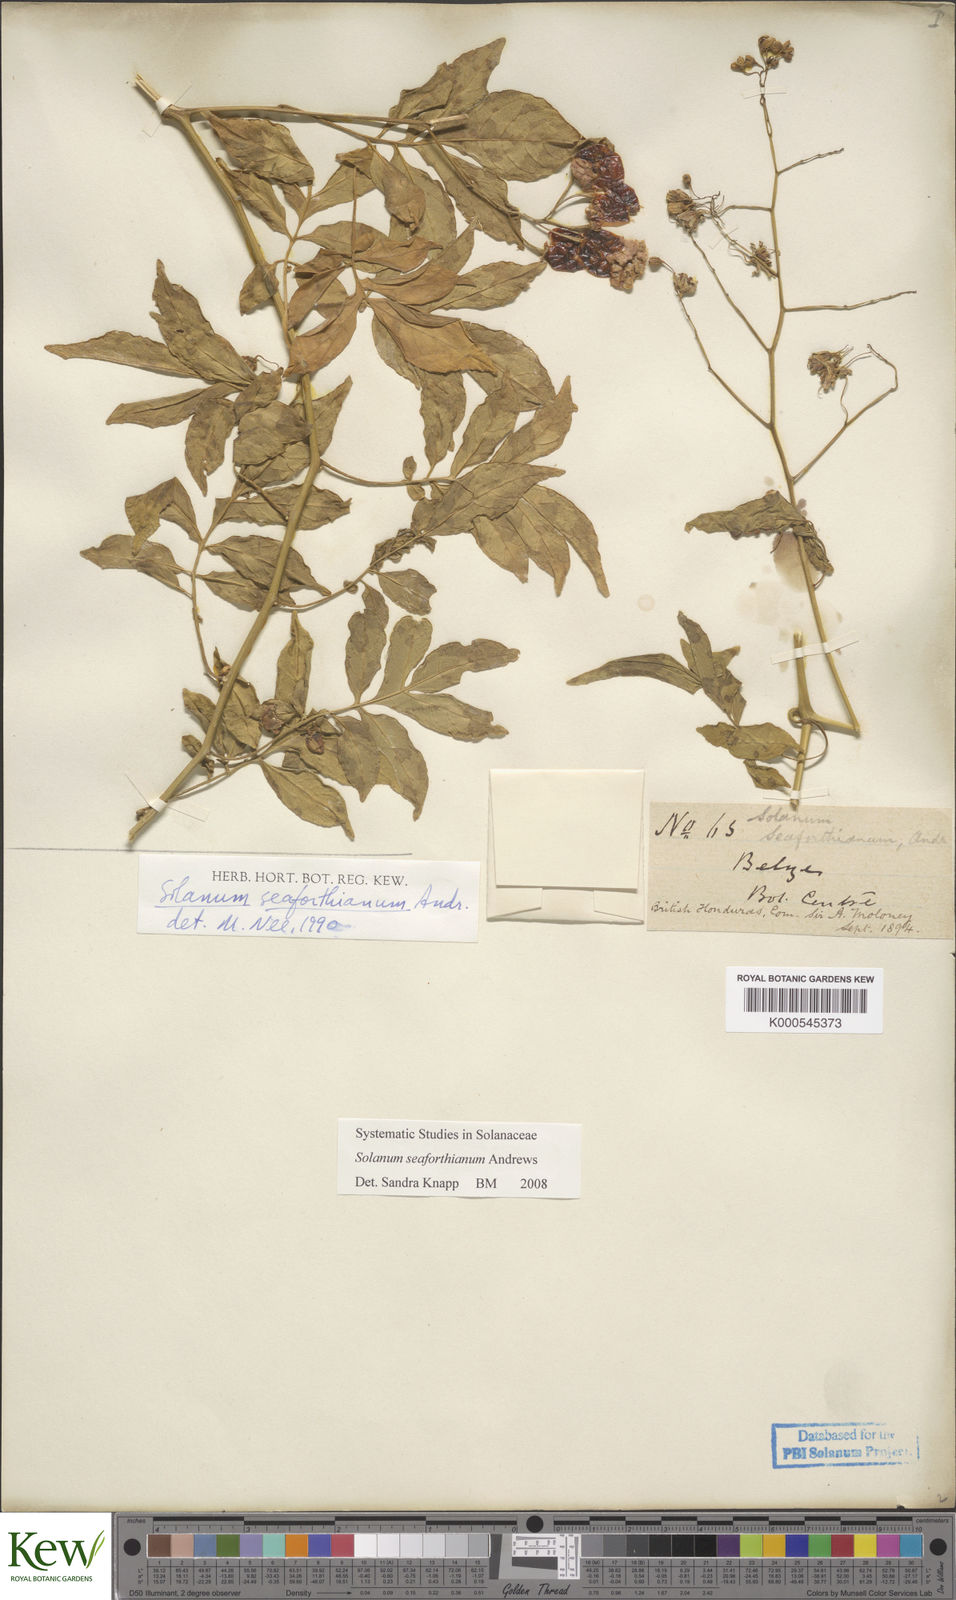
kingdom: Plantae
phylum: Tracheophyta
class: Magnoliopsida
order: Solanales
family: Solanaceae
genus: Solanum
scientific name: Solanum seaforthianum
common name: Brazilian nightshade
